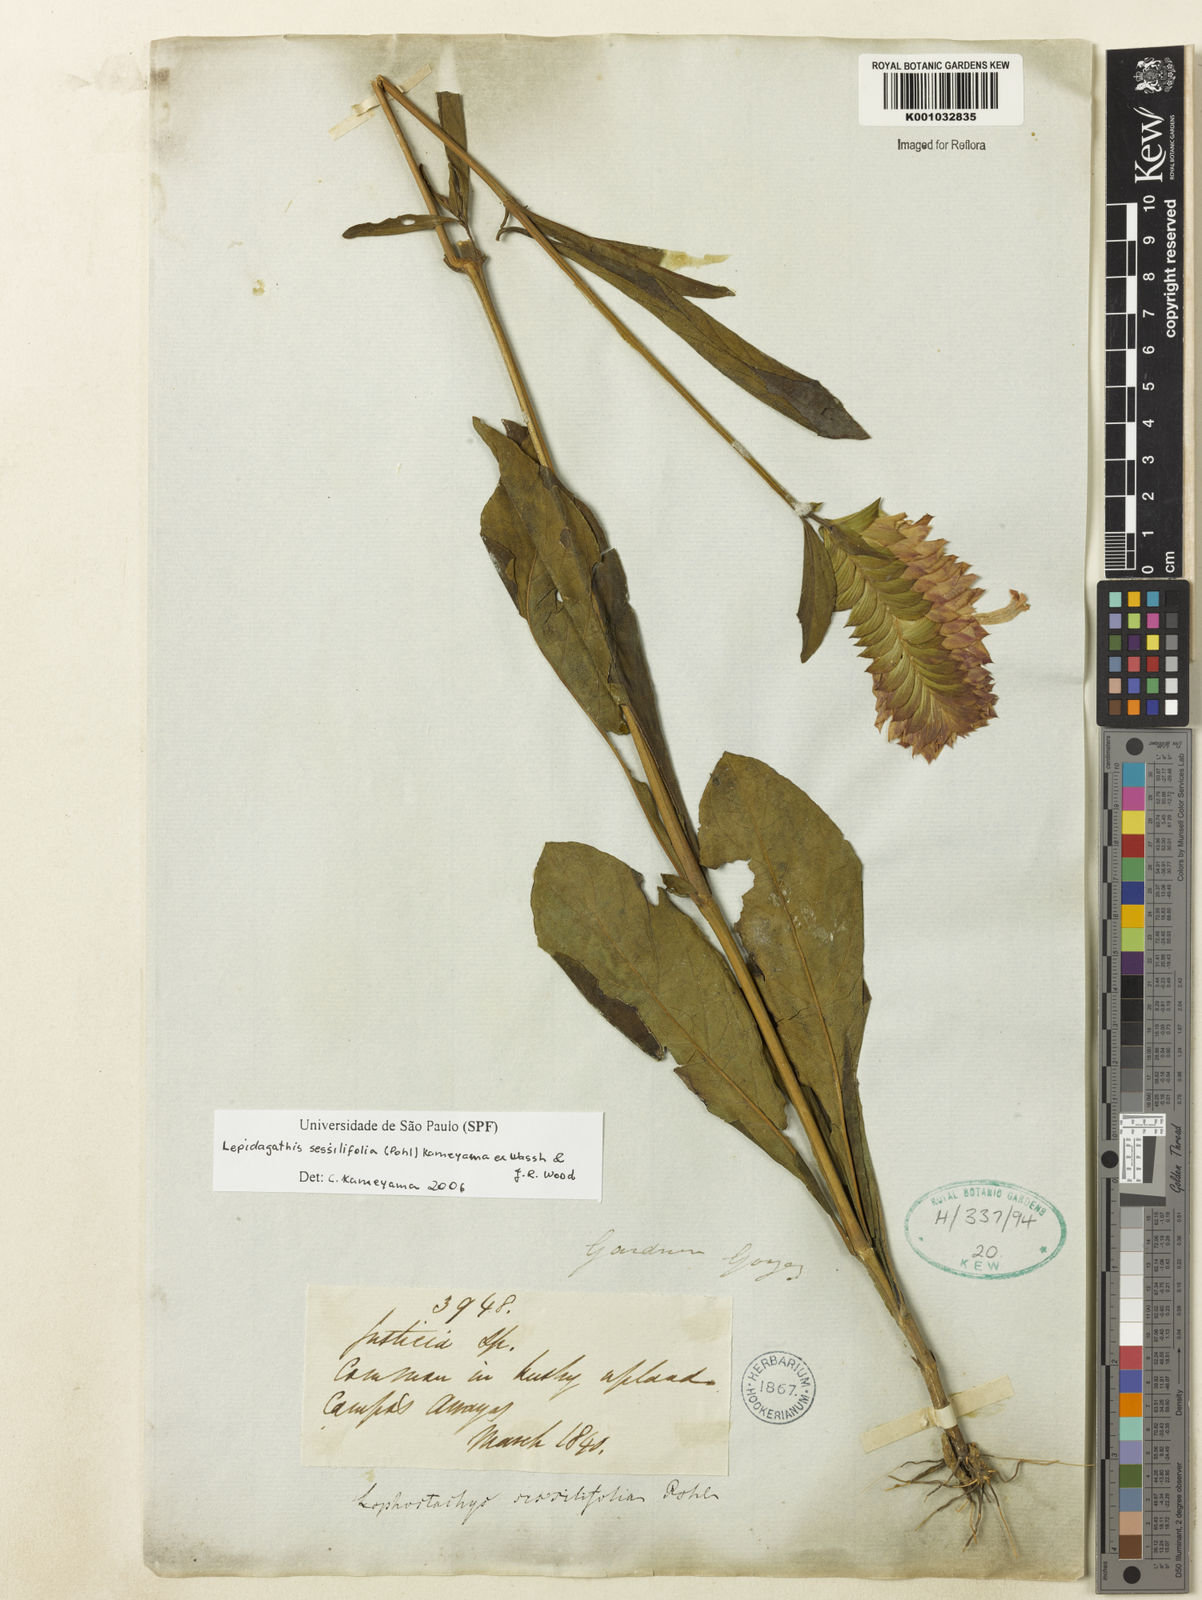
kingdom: Plantae
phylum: Tracheophyta
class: Magnoliopsida
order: Lamiales
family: Acanthaceae
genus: Lepidagathis
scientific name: Lepidagathis sessilifolia
